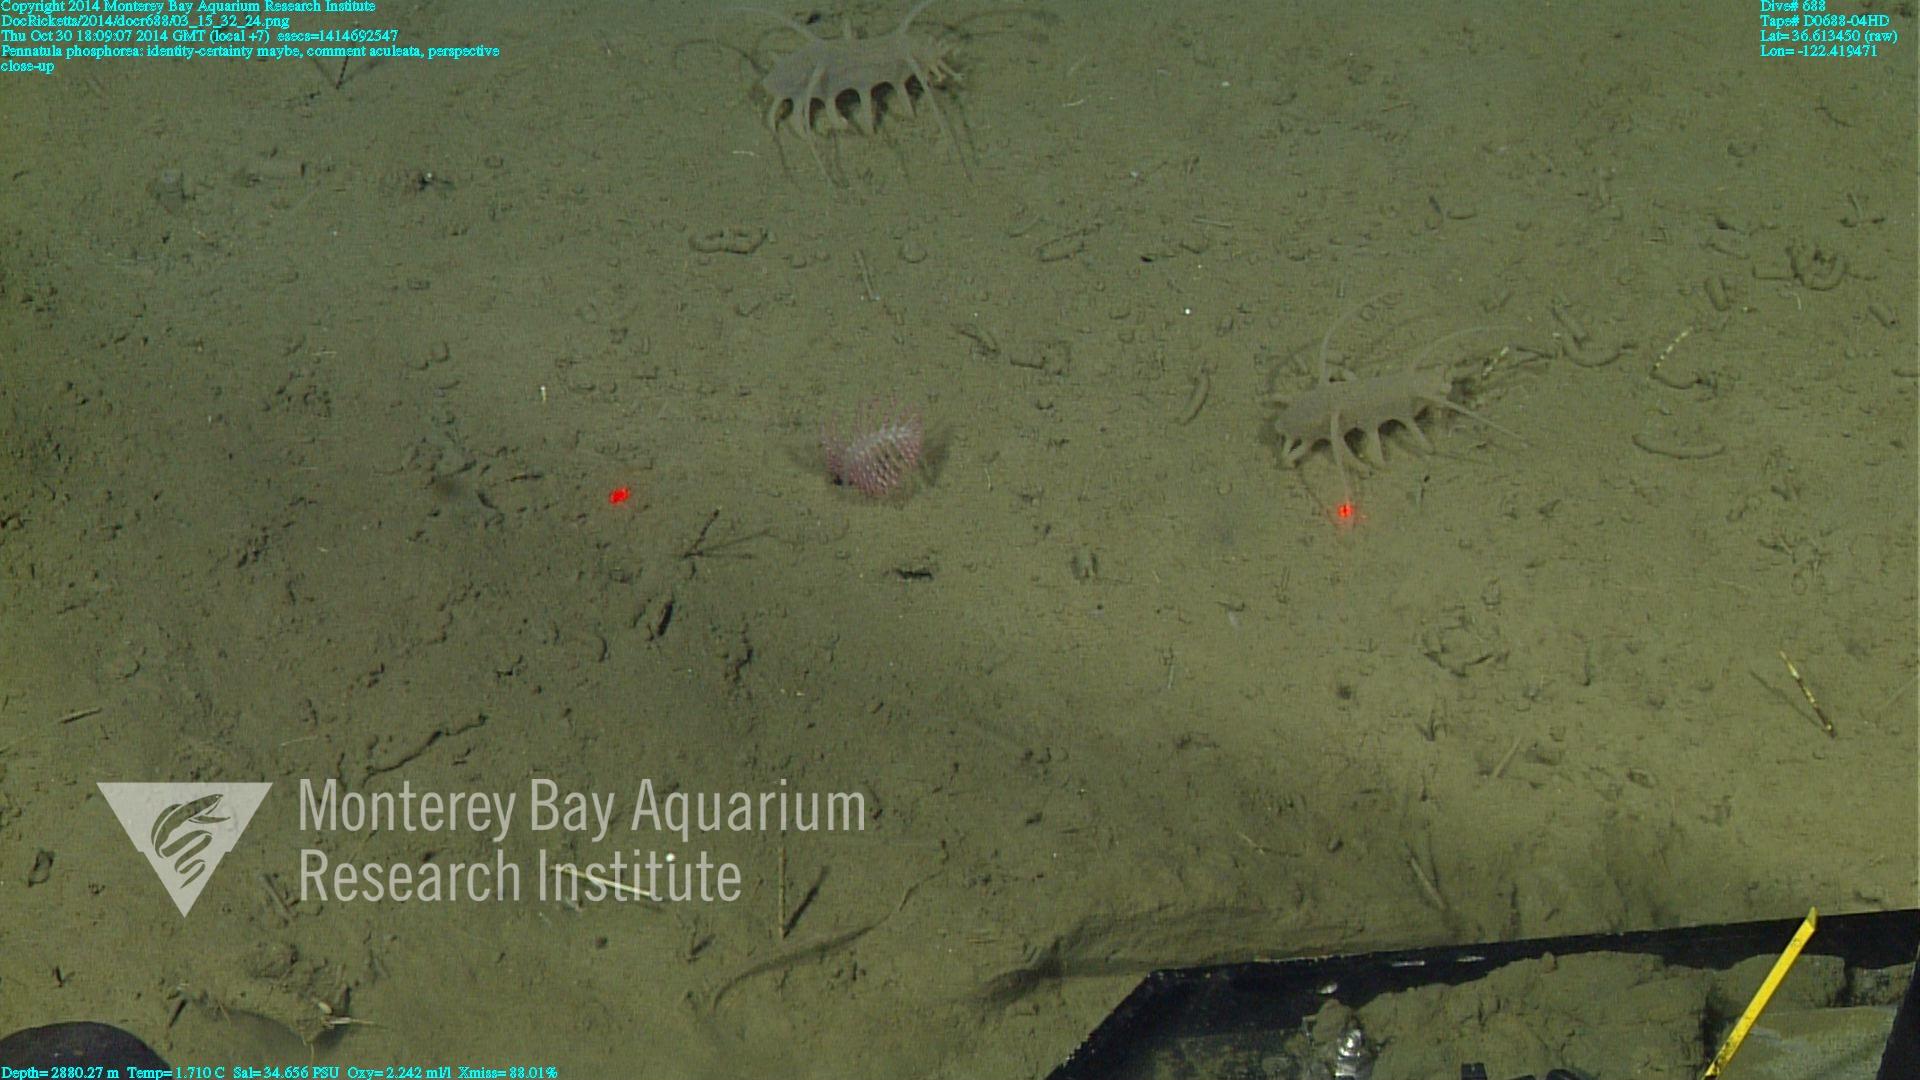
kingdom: Animalia
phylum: Cnidaria
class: Anthozoa
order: Scleralcyonacea
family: Pennatulidae
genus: Pennatula
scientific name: Pennatula phosphorea
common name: Phosphorescent sea pen
